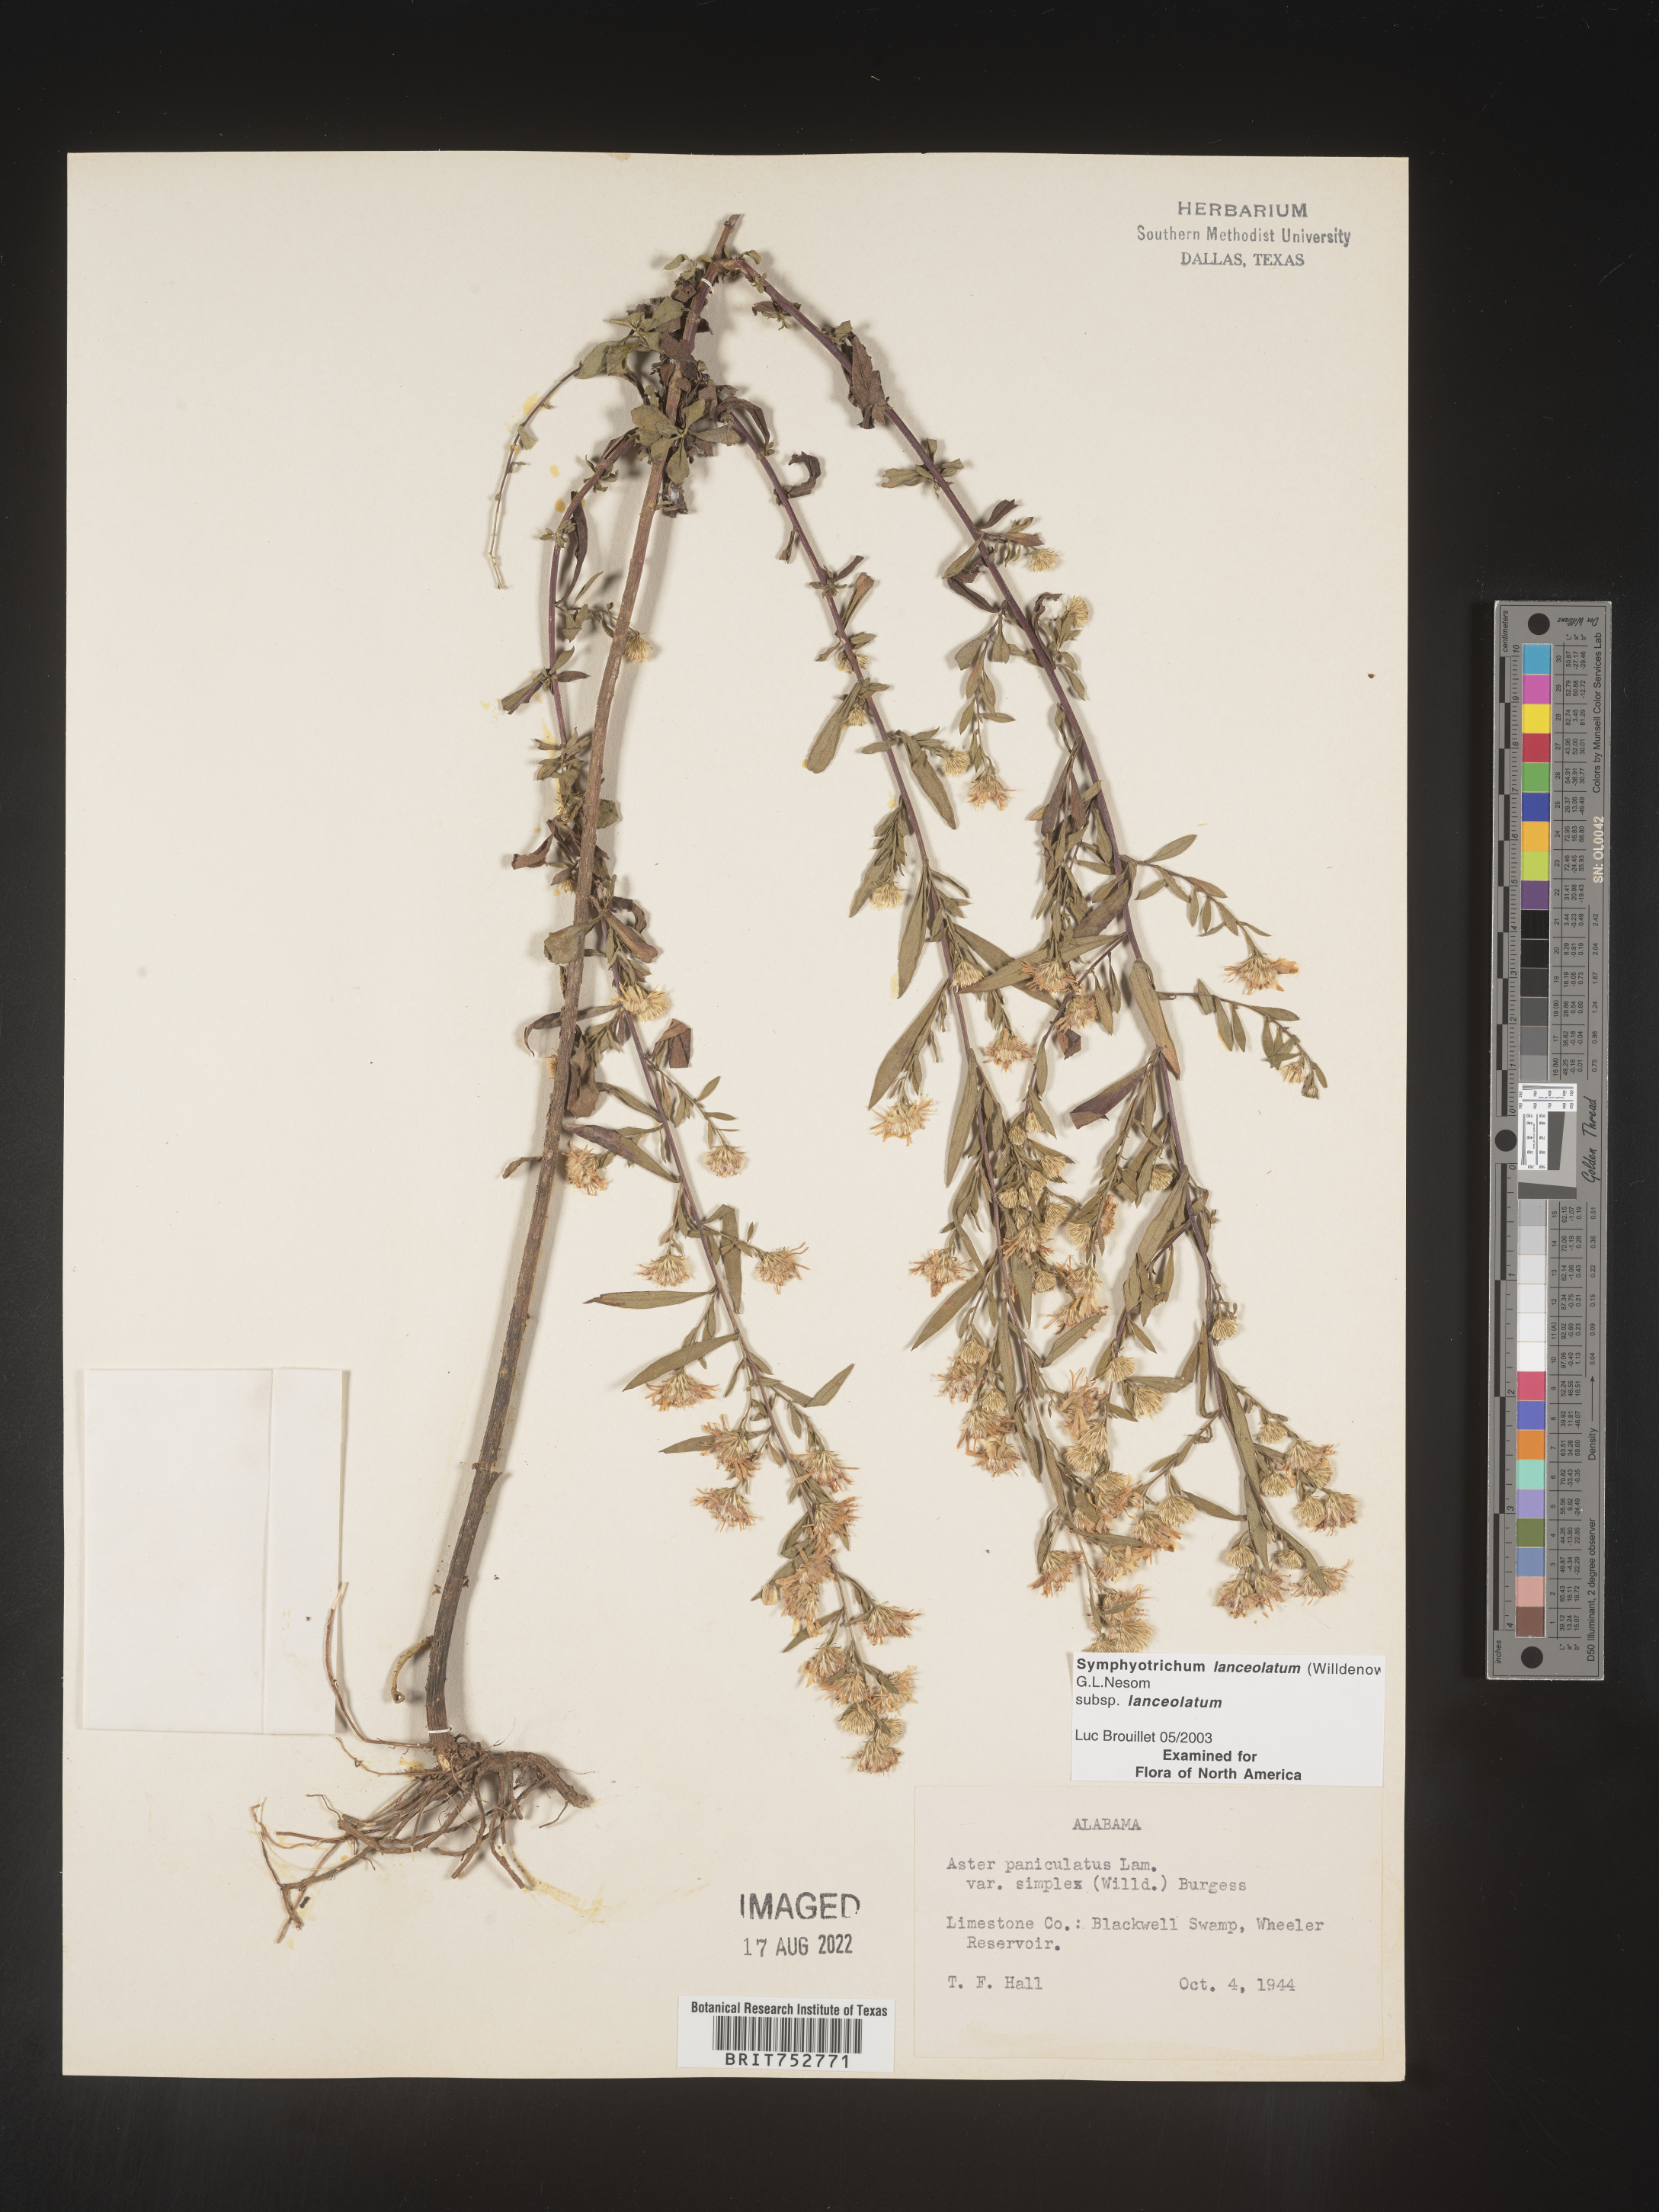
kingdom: Plantae
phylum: Tracheophyta
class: Magnoliopsida
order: Asterales
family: Asteraceae
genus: Symphyotrichum
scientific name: Symphyotrichum lanceolatum
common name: Panicled aster
